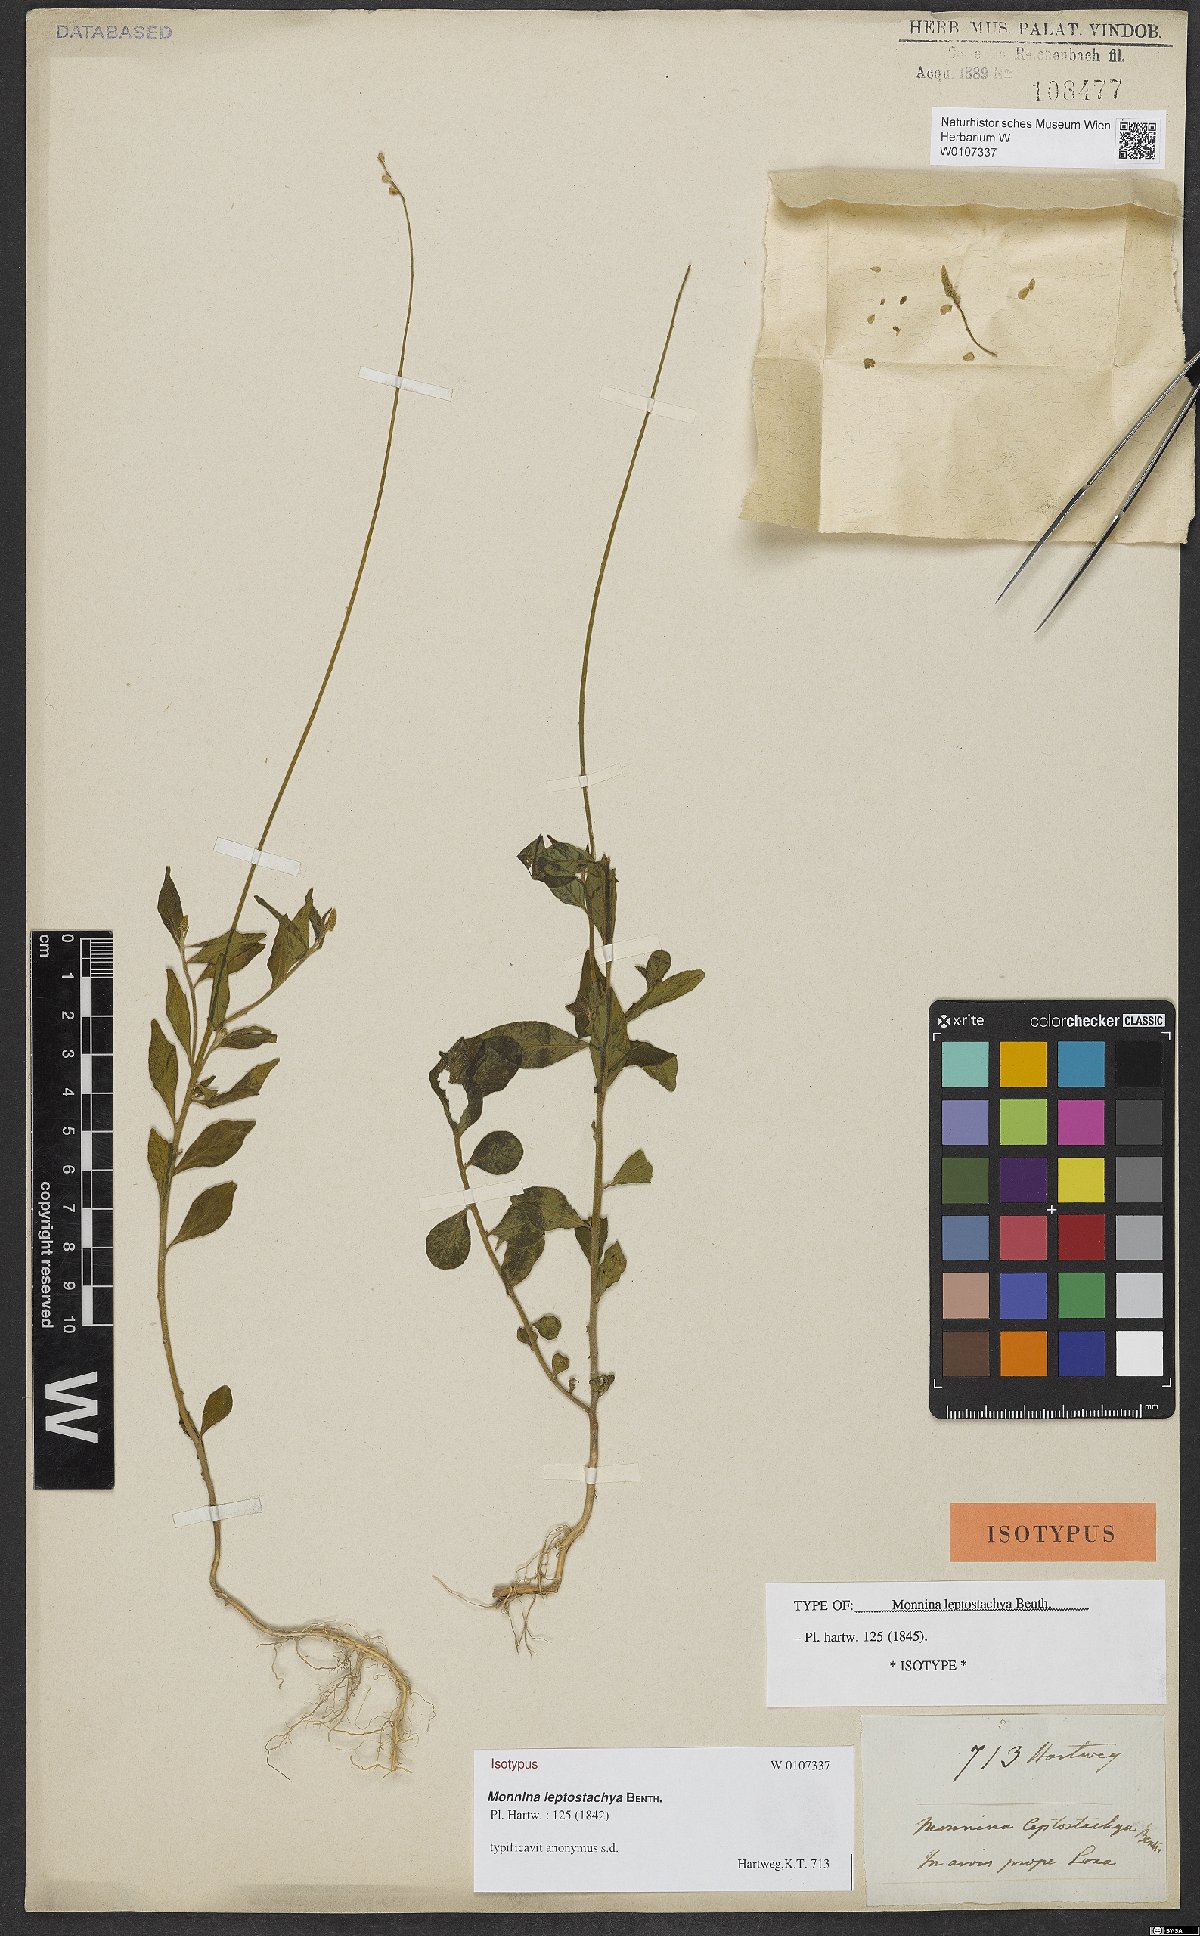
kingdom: Plantae
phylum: Tracheophyta
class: Magnoliopsida
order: Fabales
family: Polygalaceae
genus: Monnina
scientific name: Monnina leptostachya
